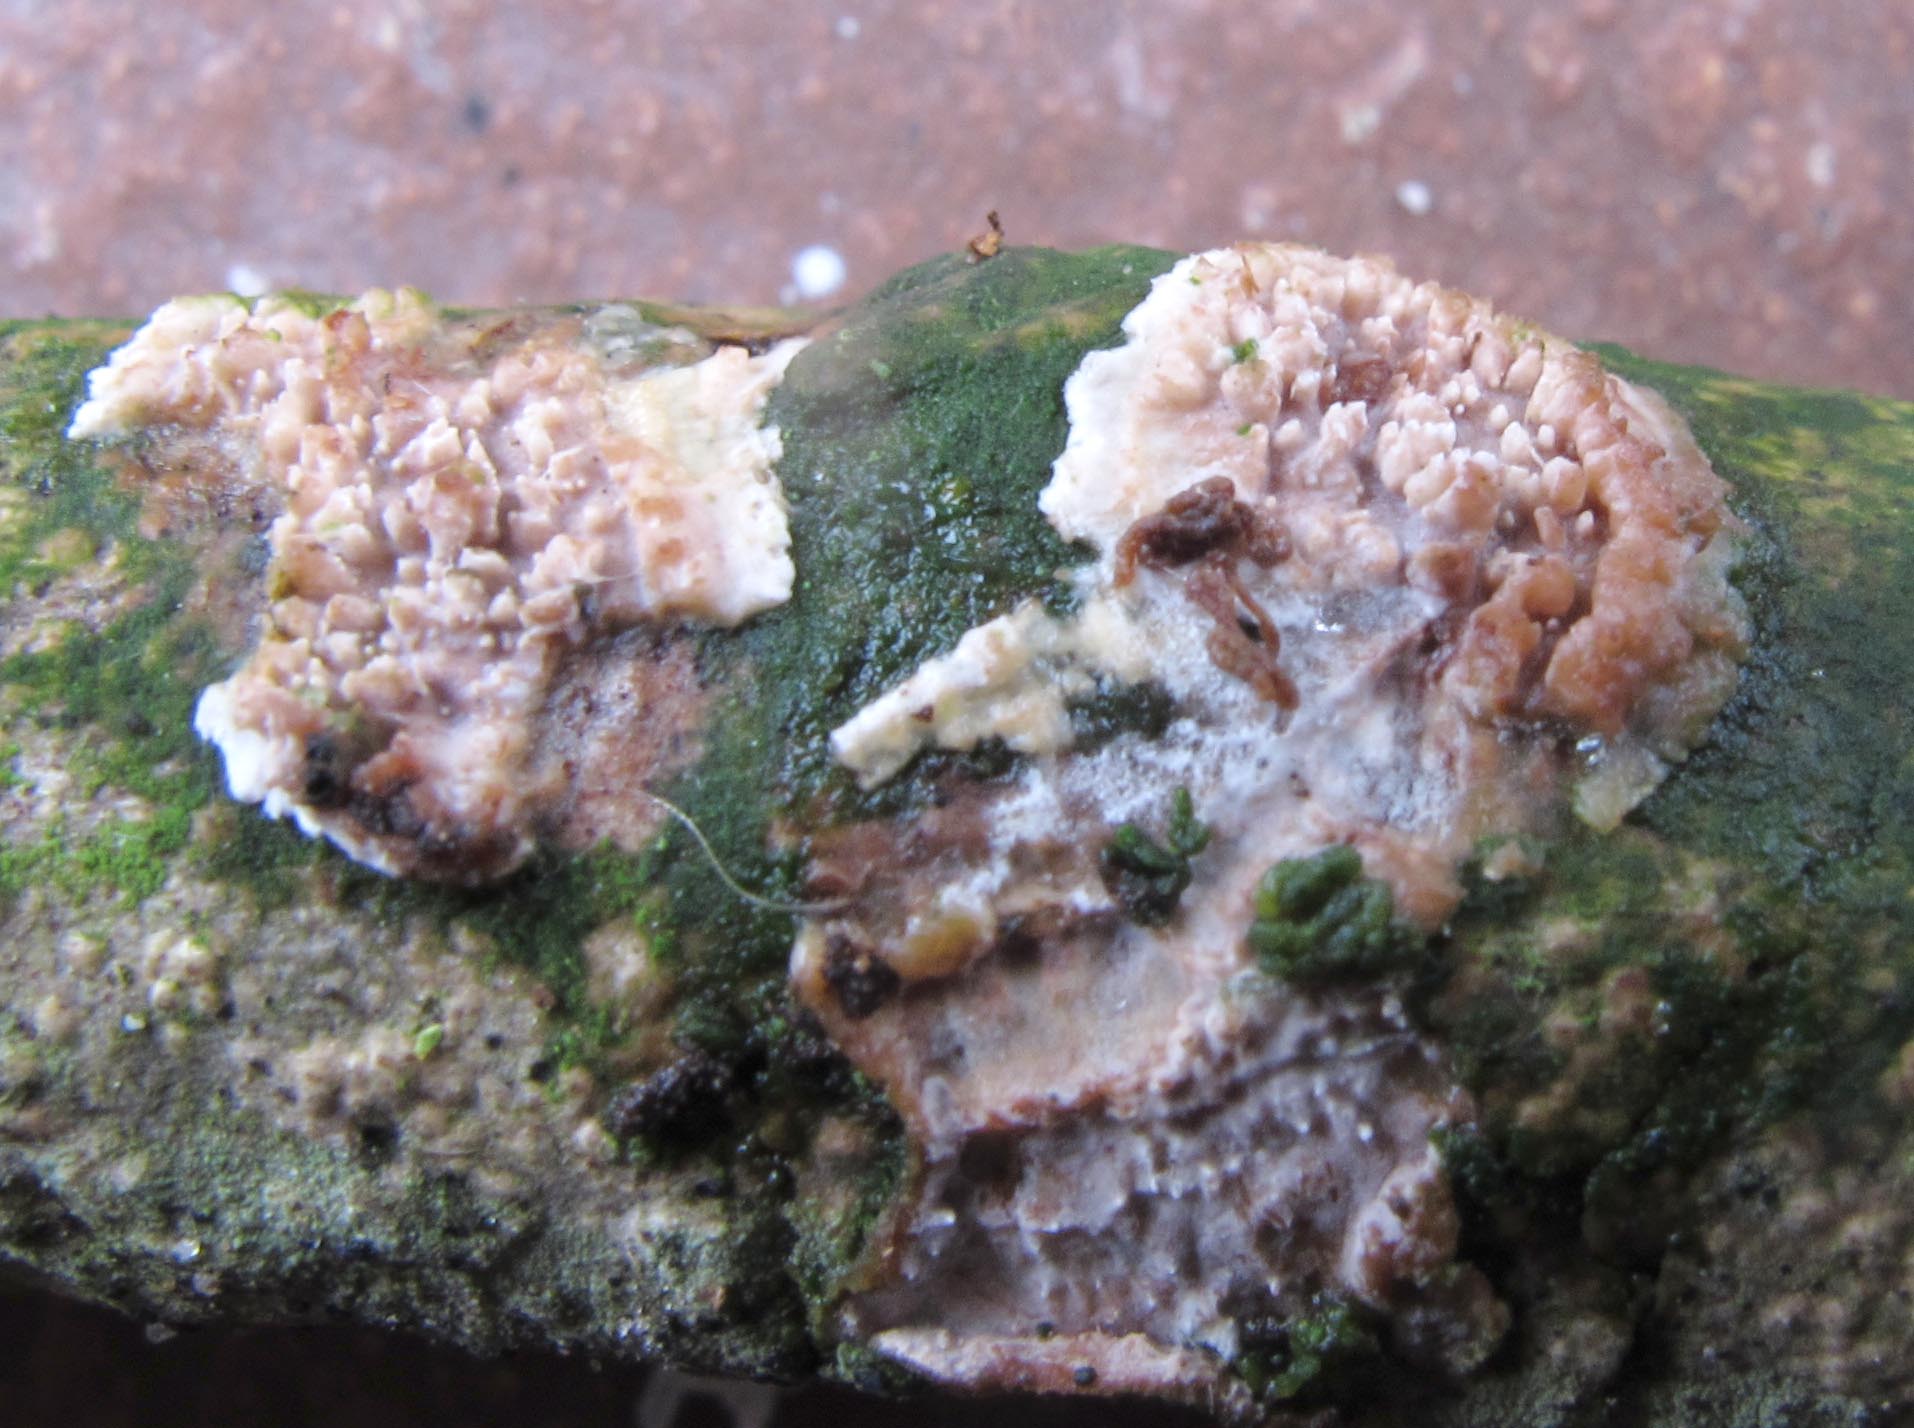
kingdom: Fungi
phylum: Basidiomycota
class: Agaricomycetes
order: Auriculariales
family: Auriculariaceae
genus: Heteroradulum
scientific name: Heteroradulum deglubens
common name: bævreskorpe
